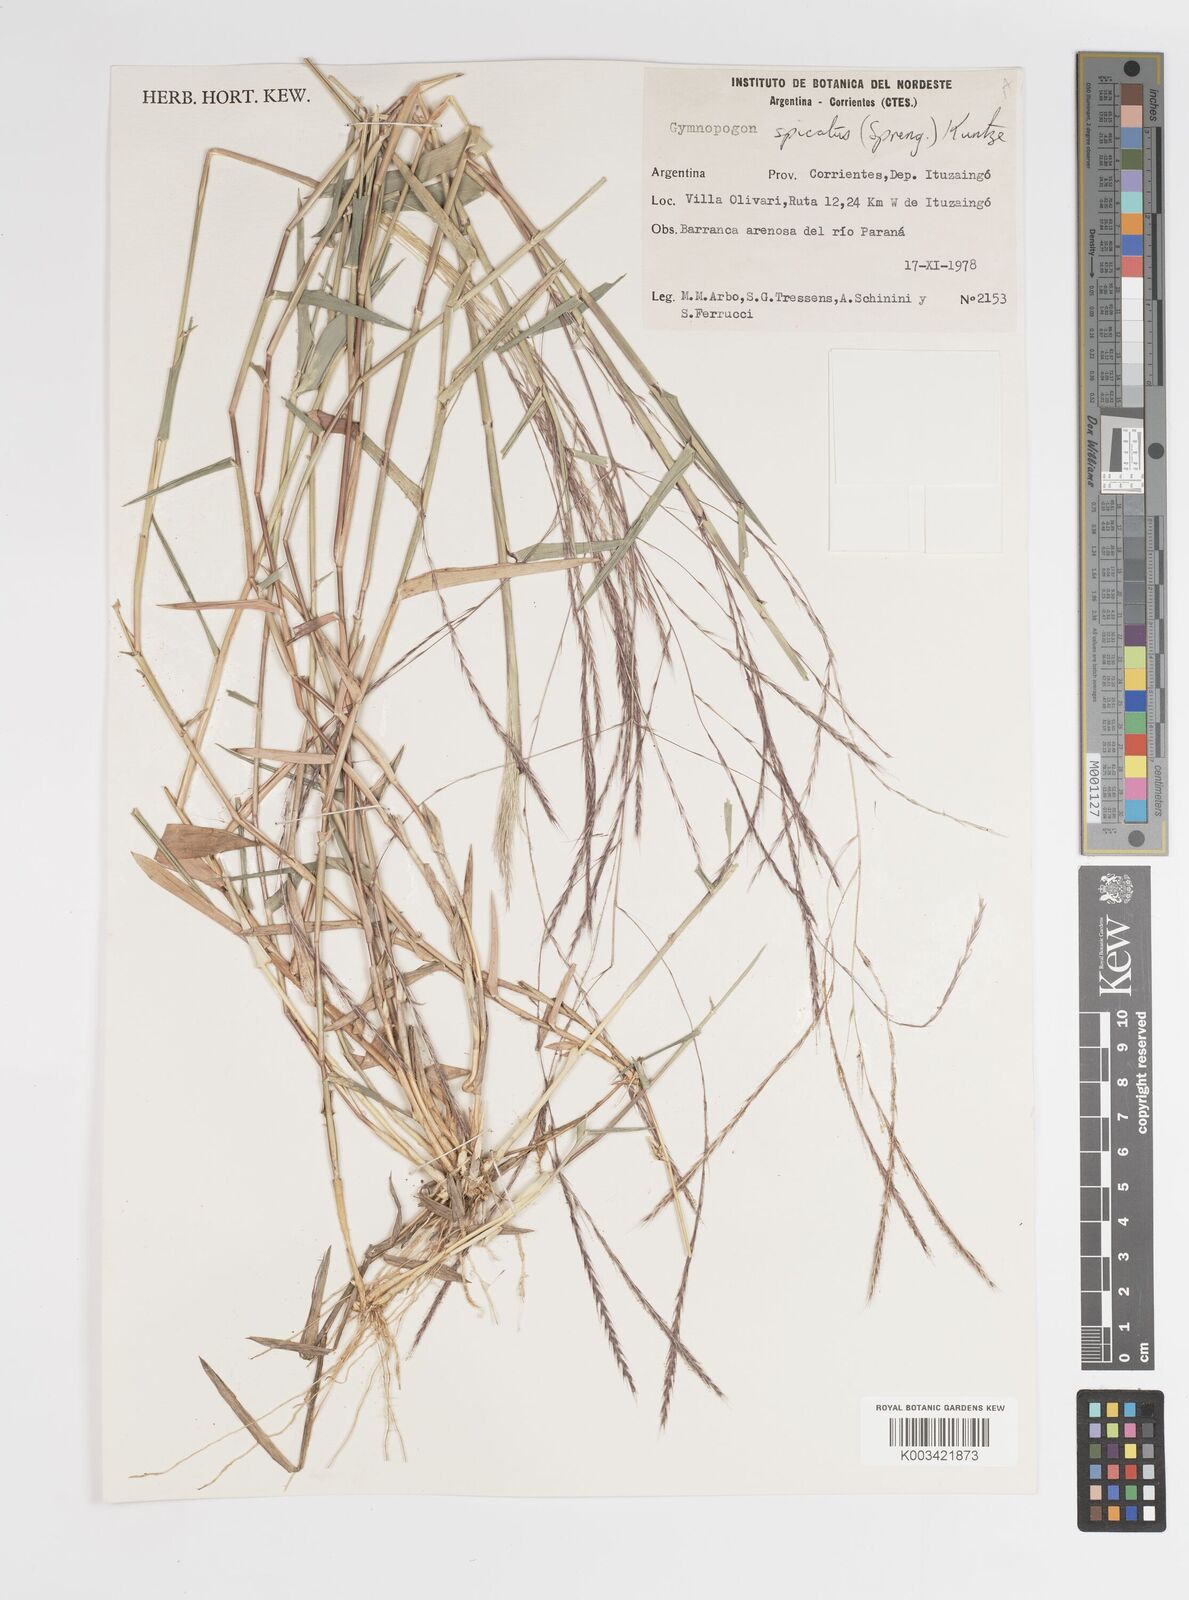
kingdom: Plantae
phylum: Tracheophyta
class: Liliopsida
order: Poales
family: Poaceae
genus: Gymnopogon
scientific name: Gymnopogon spicatus
